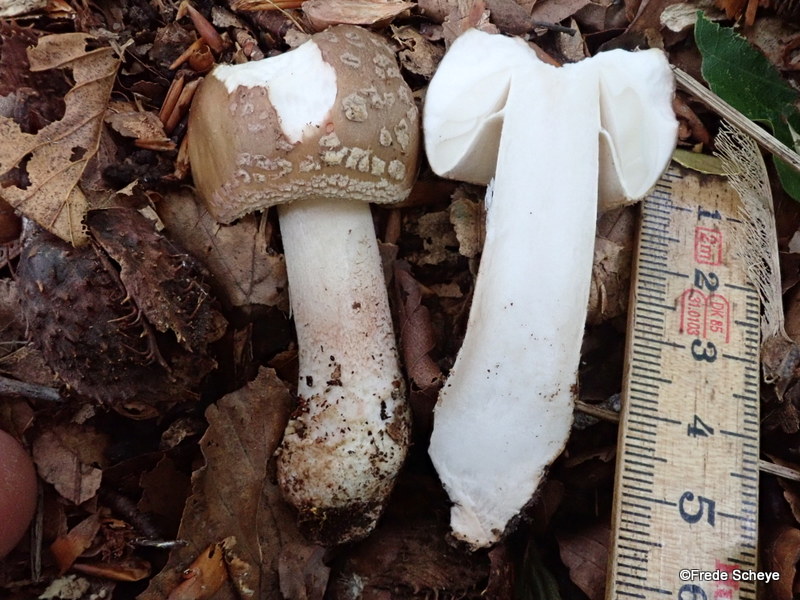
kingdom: Fungi
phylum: Basidiomycota
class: Agaricomycetes
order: Agaricales
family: Amanitaceae
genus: Amanita
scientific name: Amanita rubescens
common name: rødmende fluesvamp
